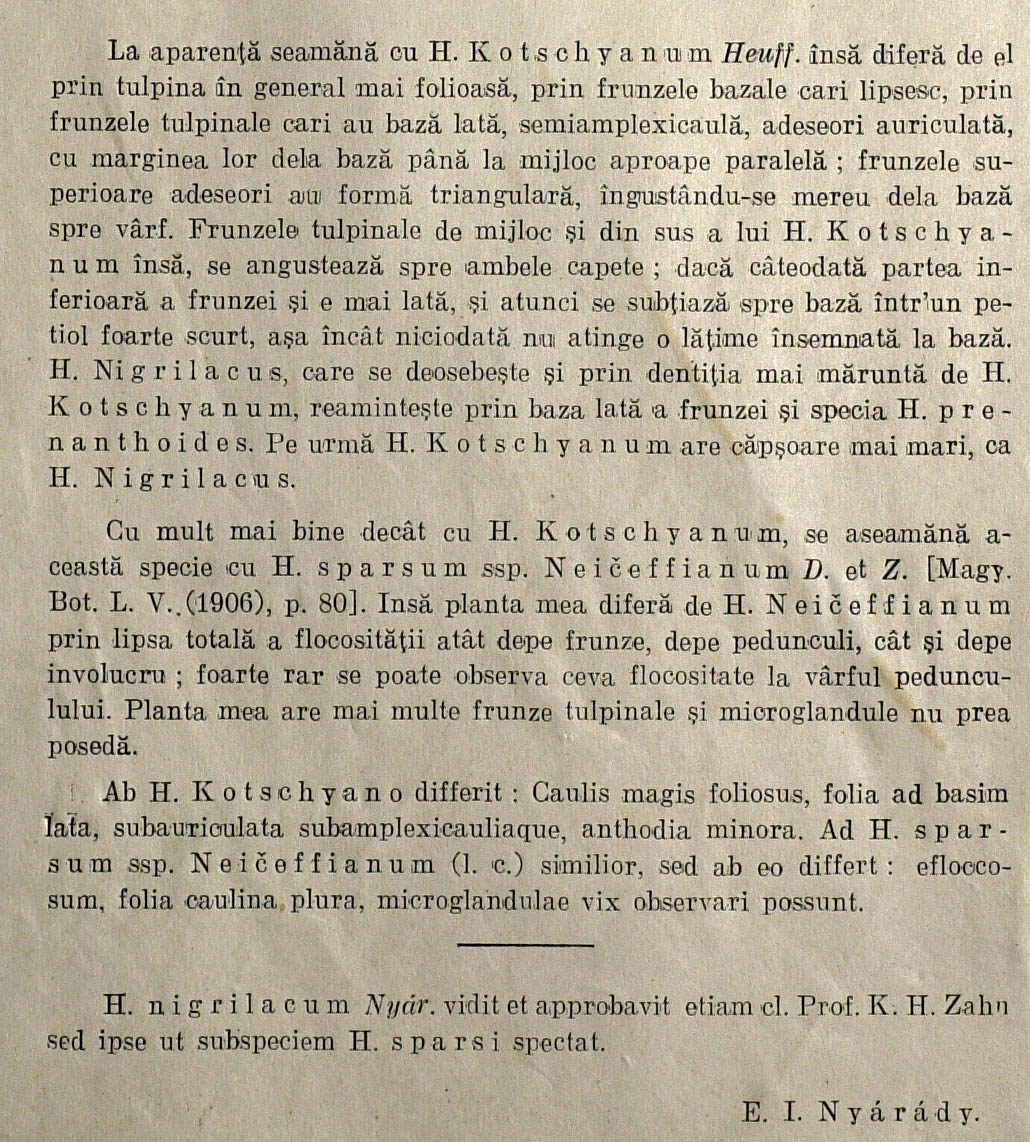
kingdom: Plantae
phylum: Tracheophyta
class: Magnoliopsida
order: Asterales
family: Asteraceae
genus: Hieracium
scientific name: Hieracium sparsum
